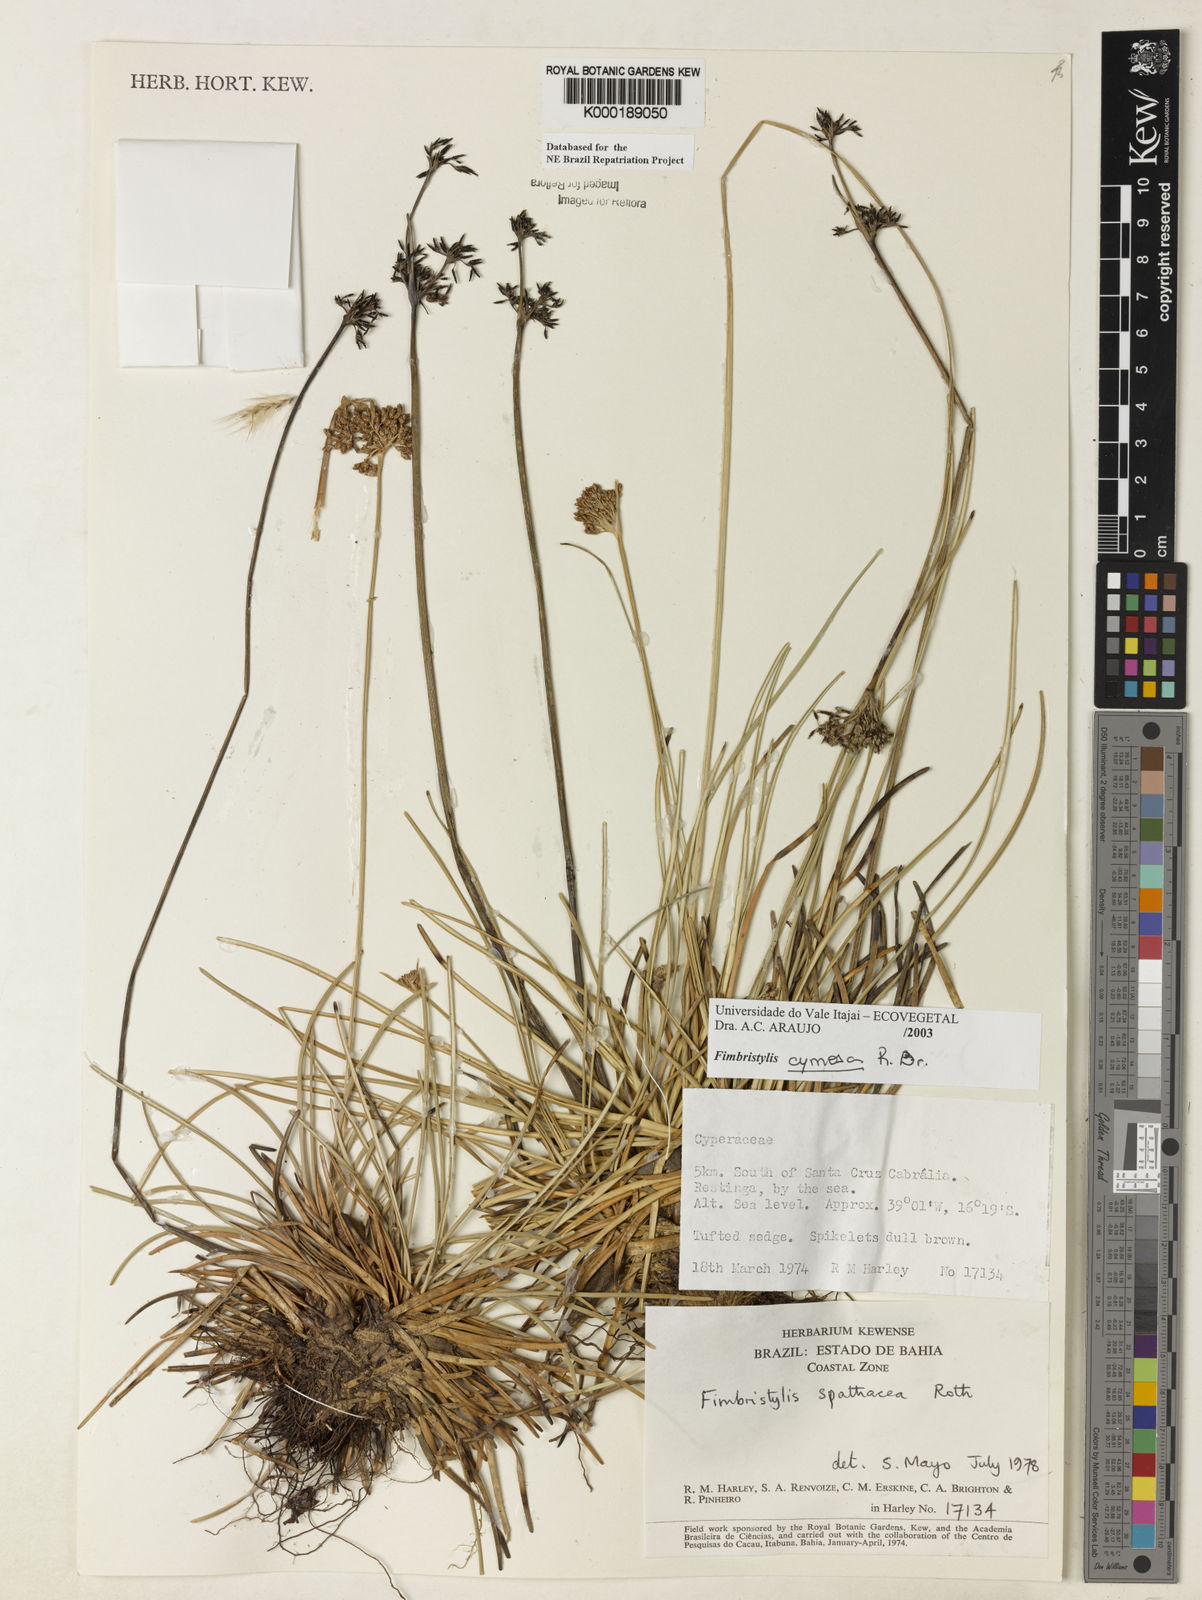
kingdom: Plantae
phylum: Tracheophyta
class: Liliopsida
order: Poales
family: Cyperaceae
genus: Fimbristylis
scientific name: Fimbristylis cymosa
